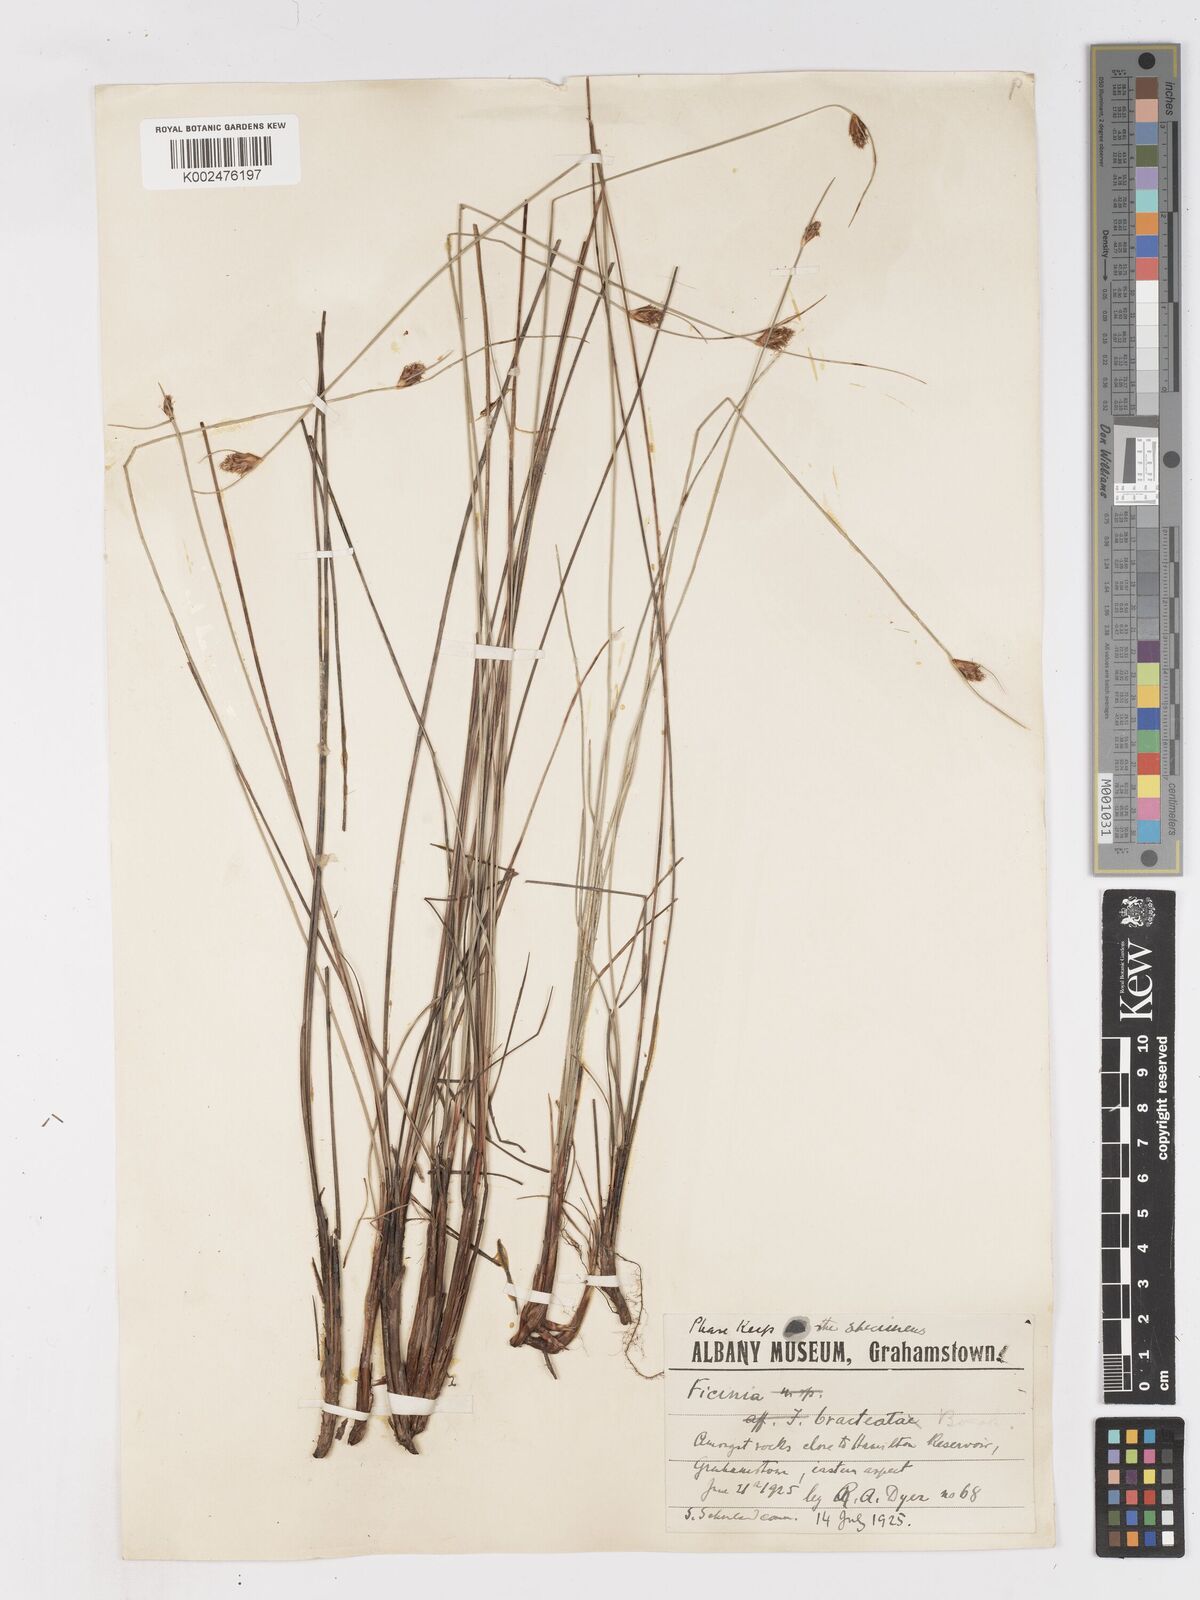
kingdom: Plantae
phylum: Tracheophyta
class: Liliopsida
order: Poales
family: Cyperaceae
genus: Ficinia
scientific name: Ficinia nigrescens
